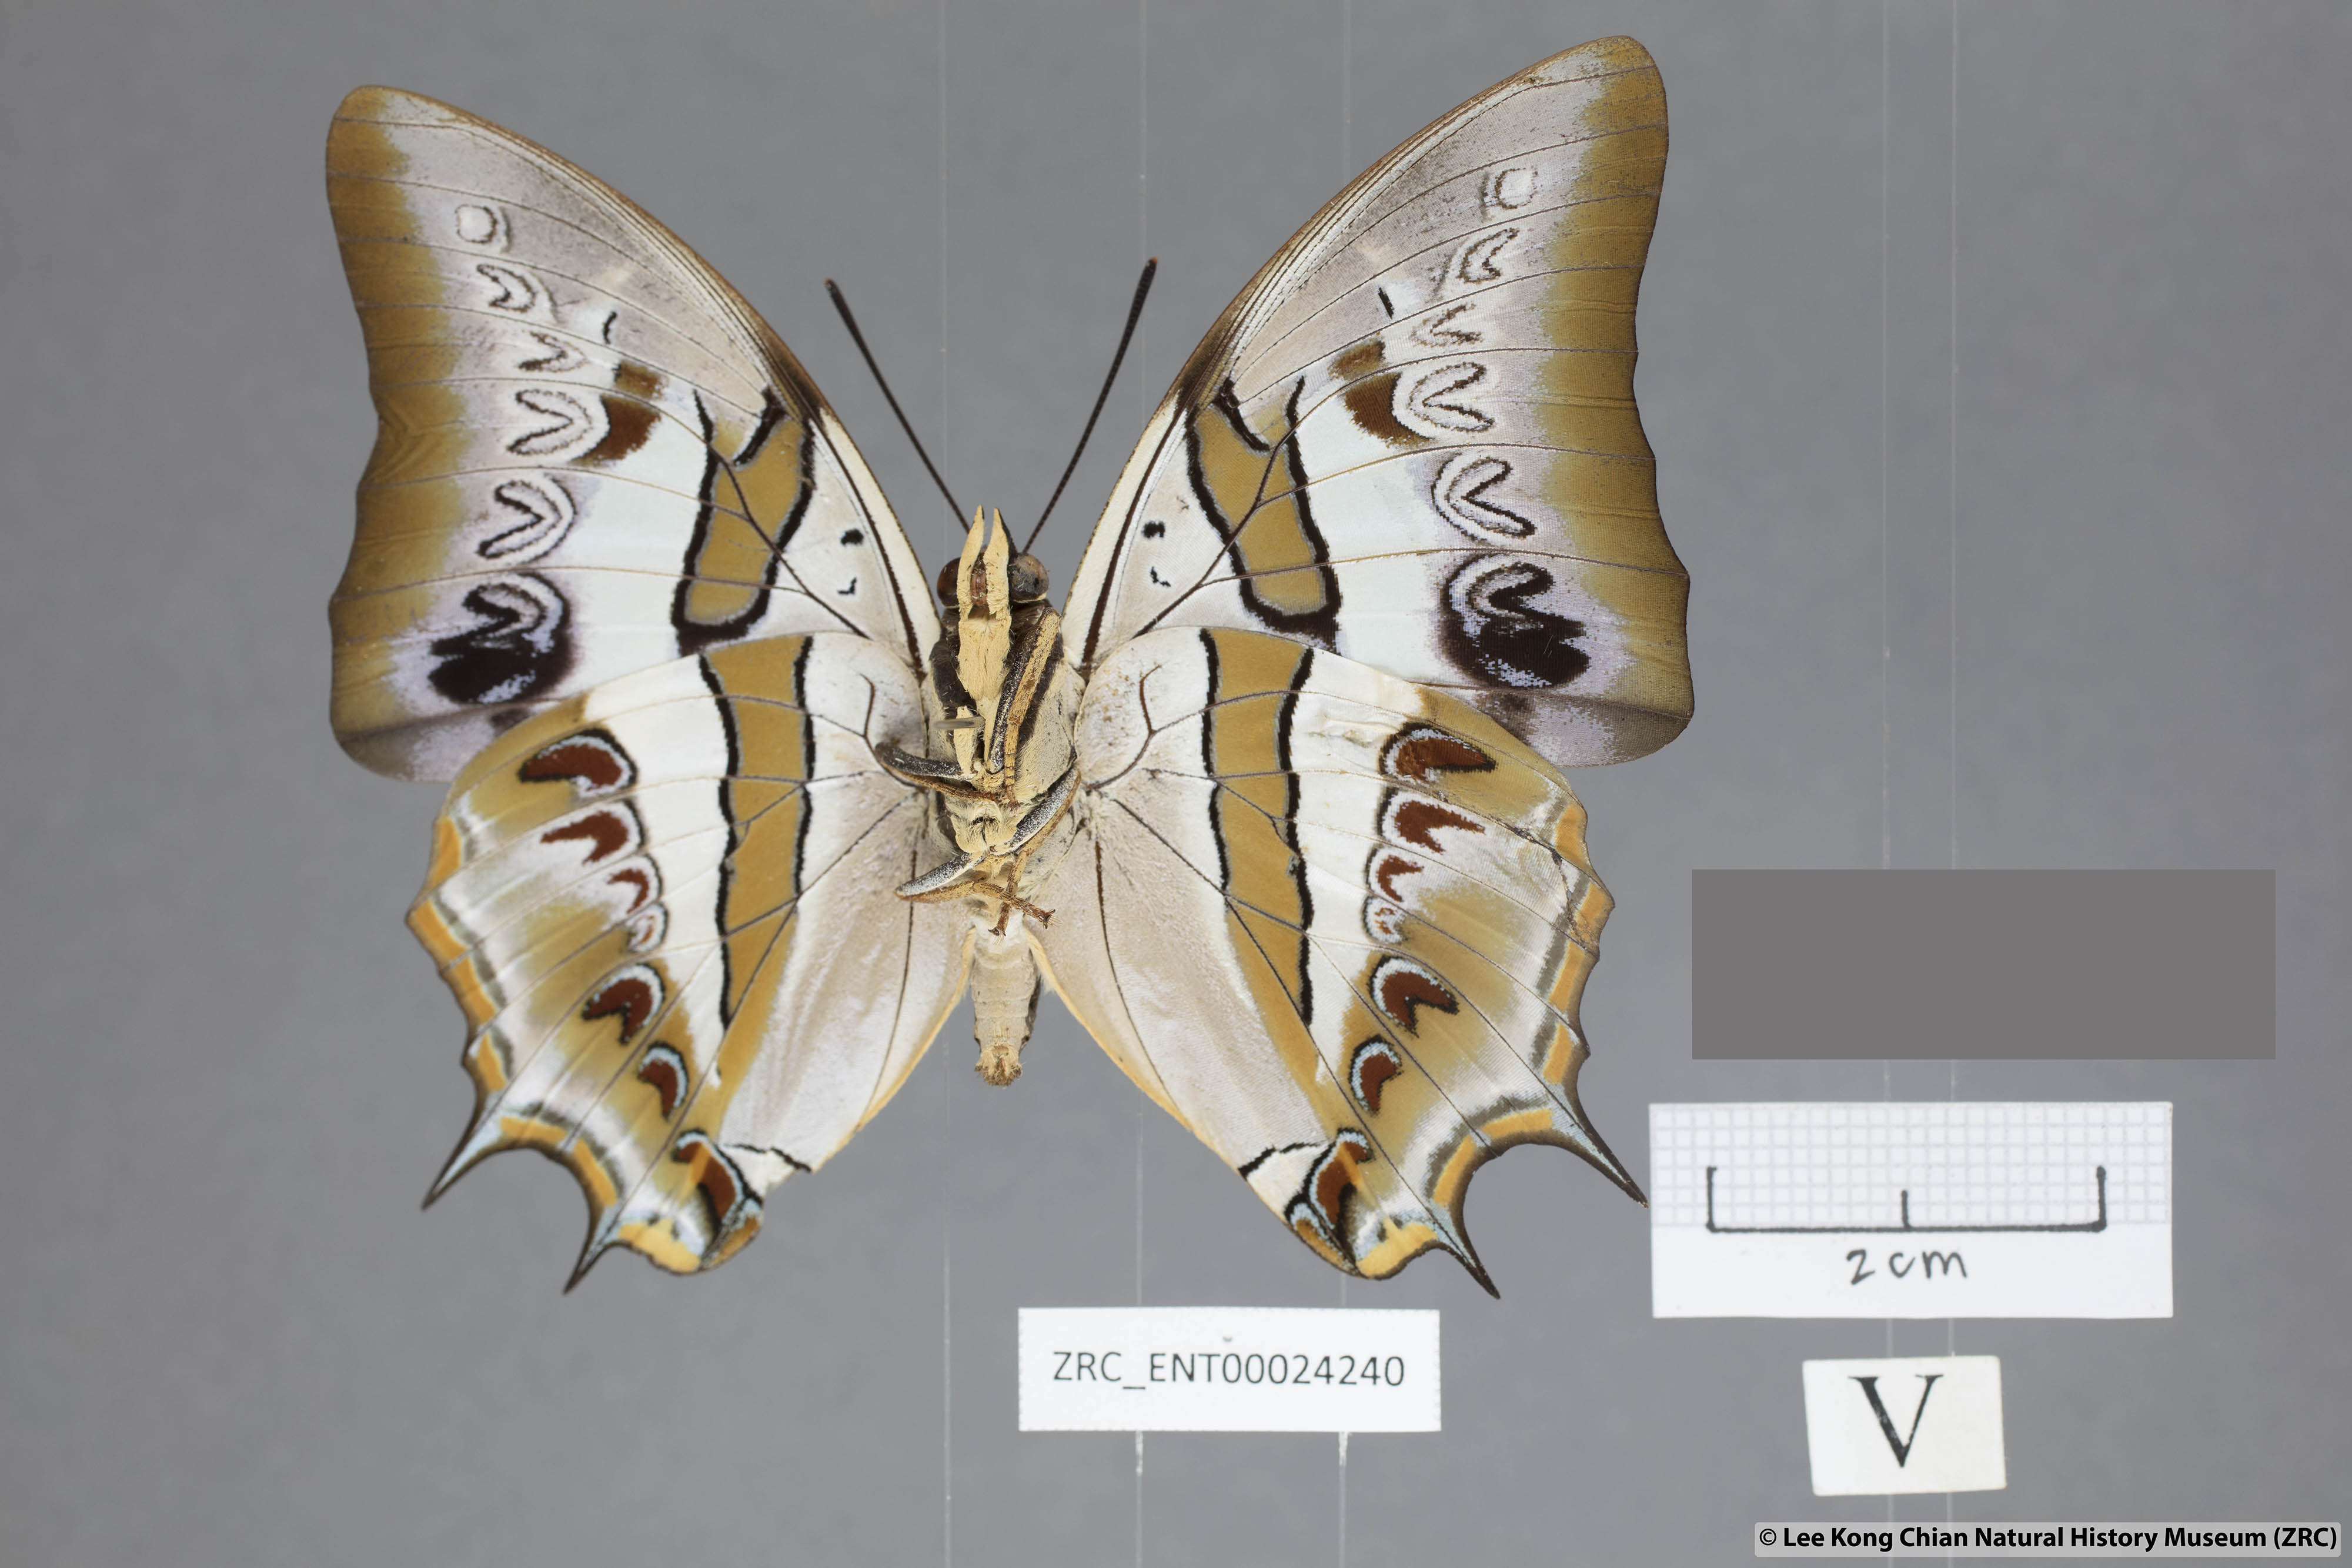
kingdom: Animalia
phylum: Arthropoda
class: Insecta
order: Lepidoptera
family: Nymphalidae
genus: Polyura
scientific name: Polyura schreiberi
